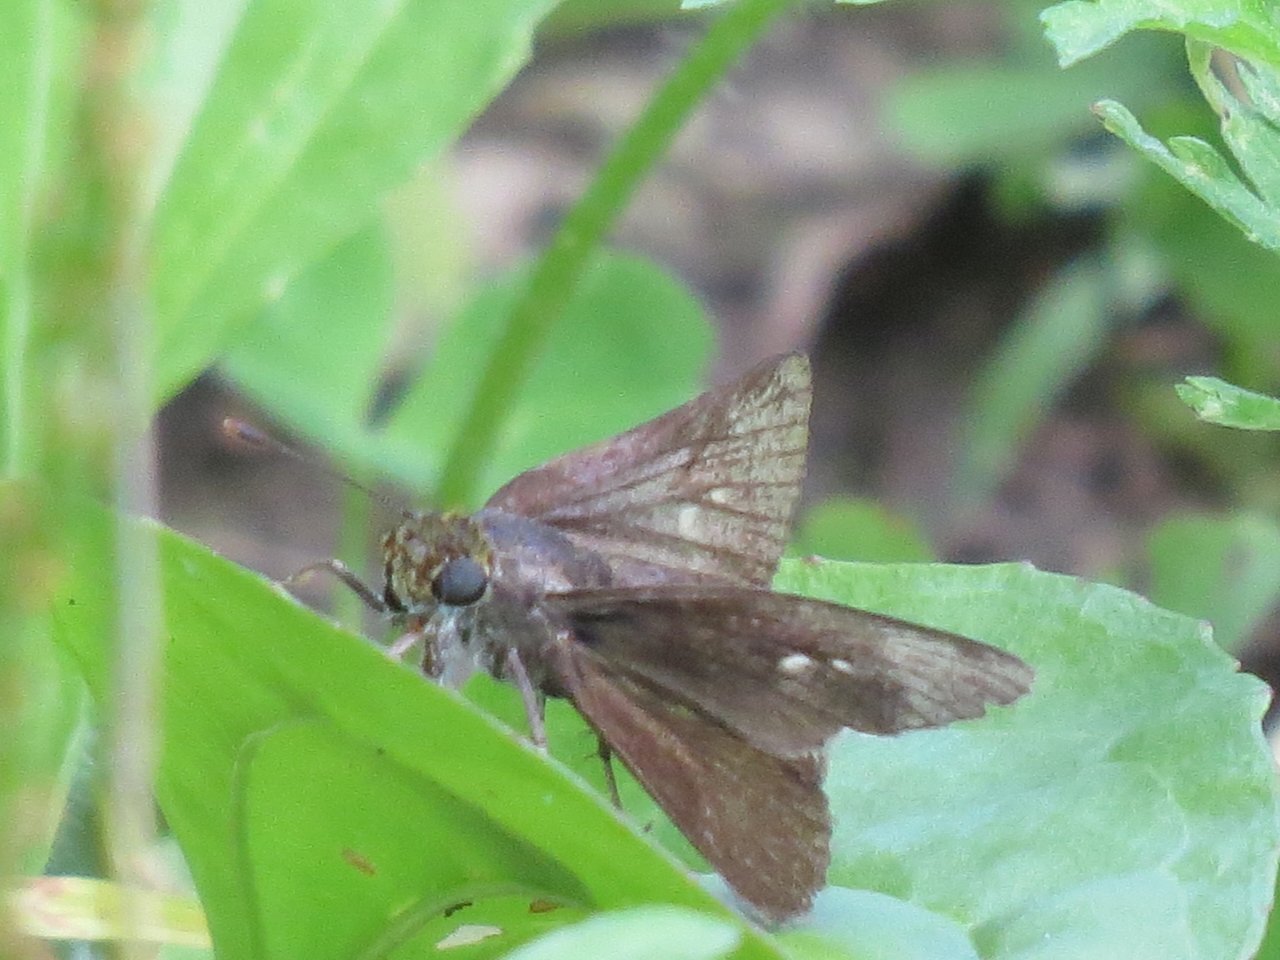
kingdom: Animalia
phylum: Arthropoda
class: Insecta
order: Lepidoptera
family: Hesperiidae
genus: Euphyes
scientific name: Euphyes vestris
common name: Dun Skipper
